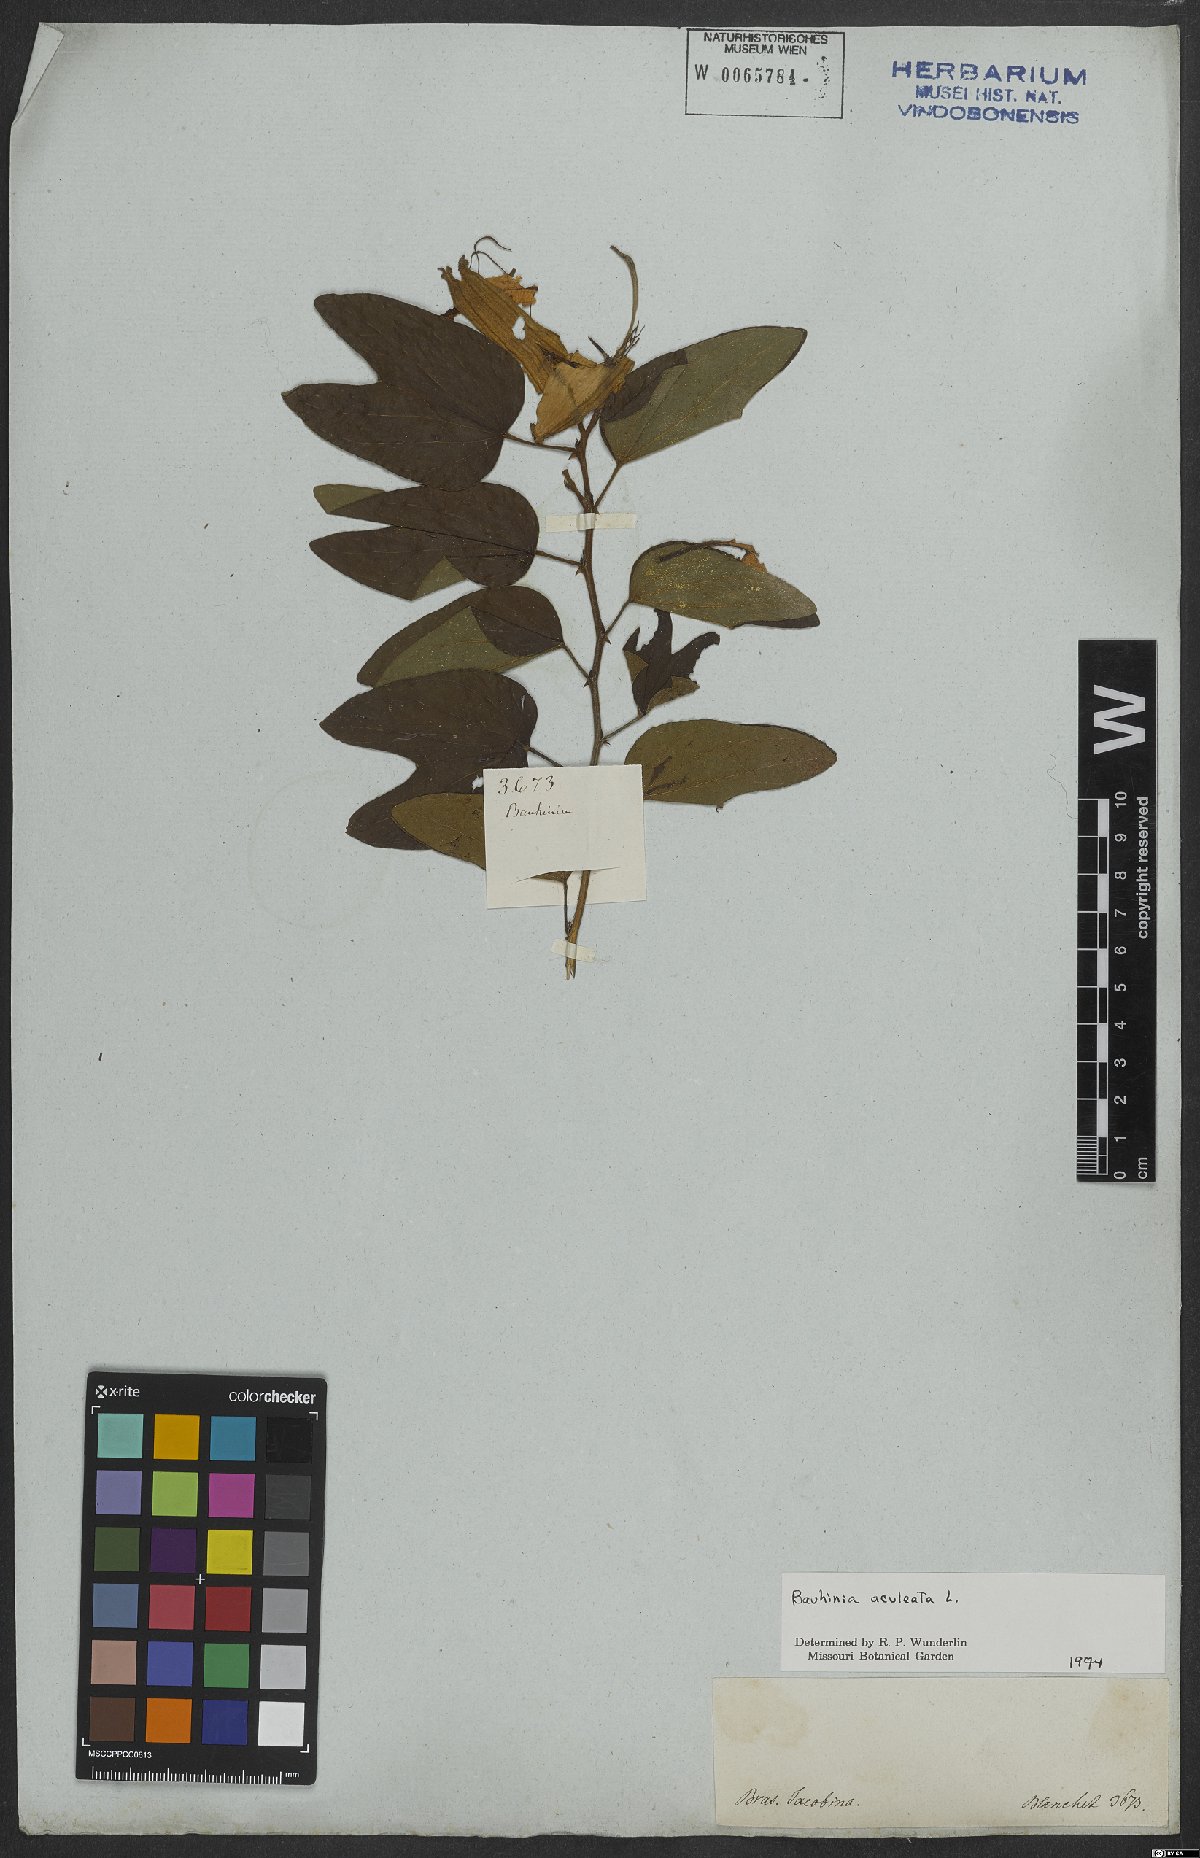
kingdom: Plantae
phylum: Tracheophyta
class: Magnoliopsida
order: Fabales
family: Fabaceae
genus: Bauhinia
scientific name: Bauhinia aculeata
